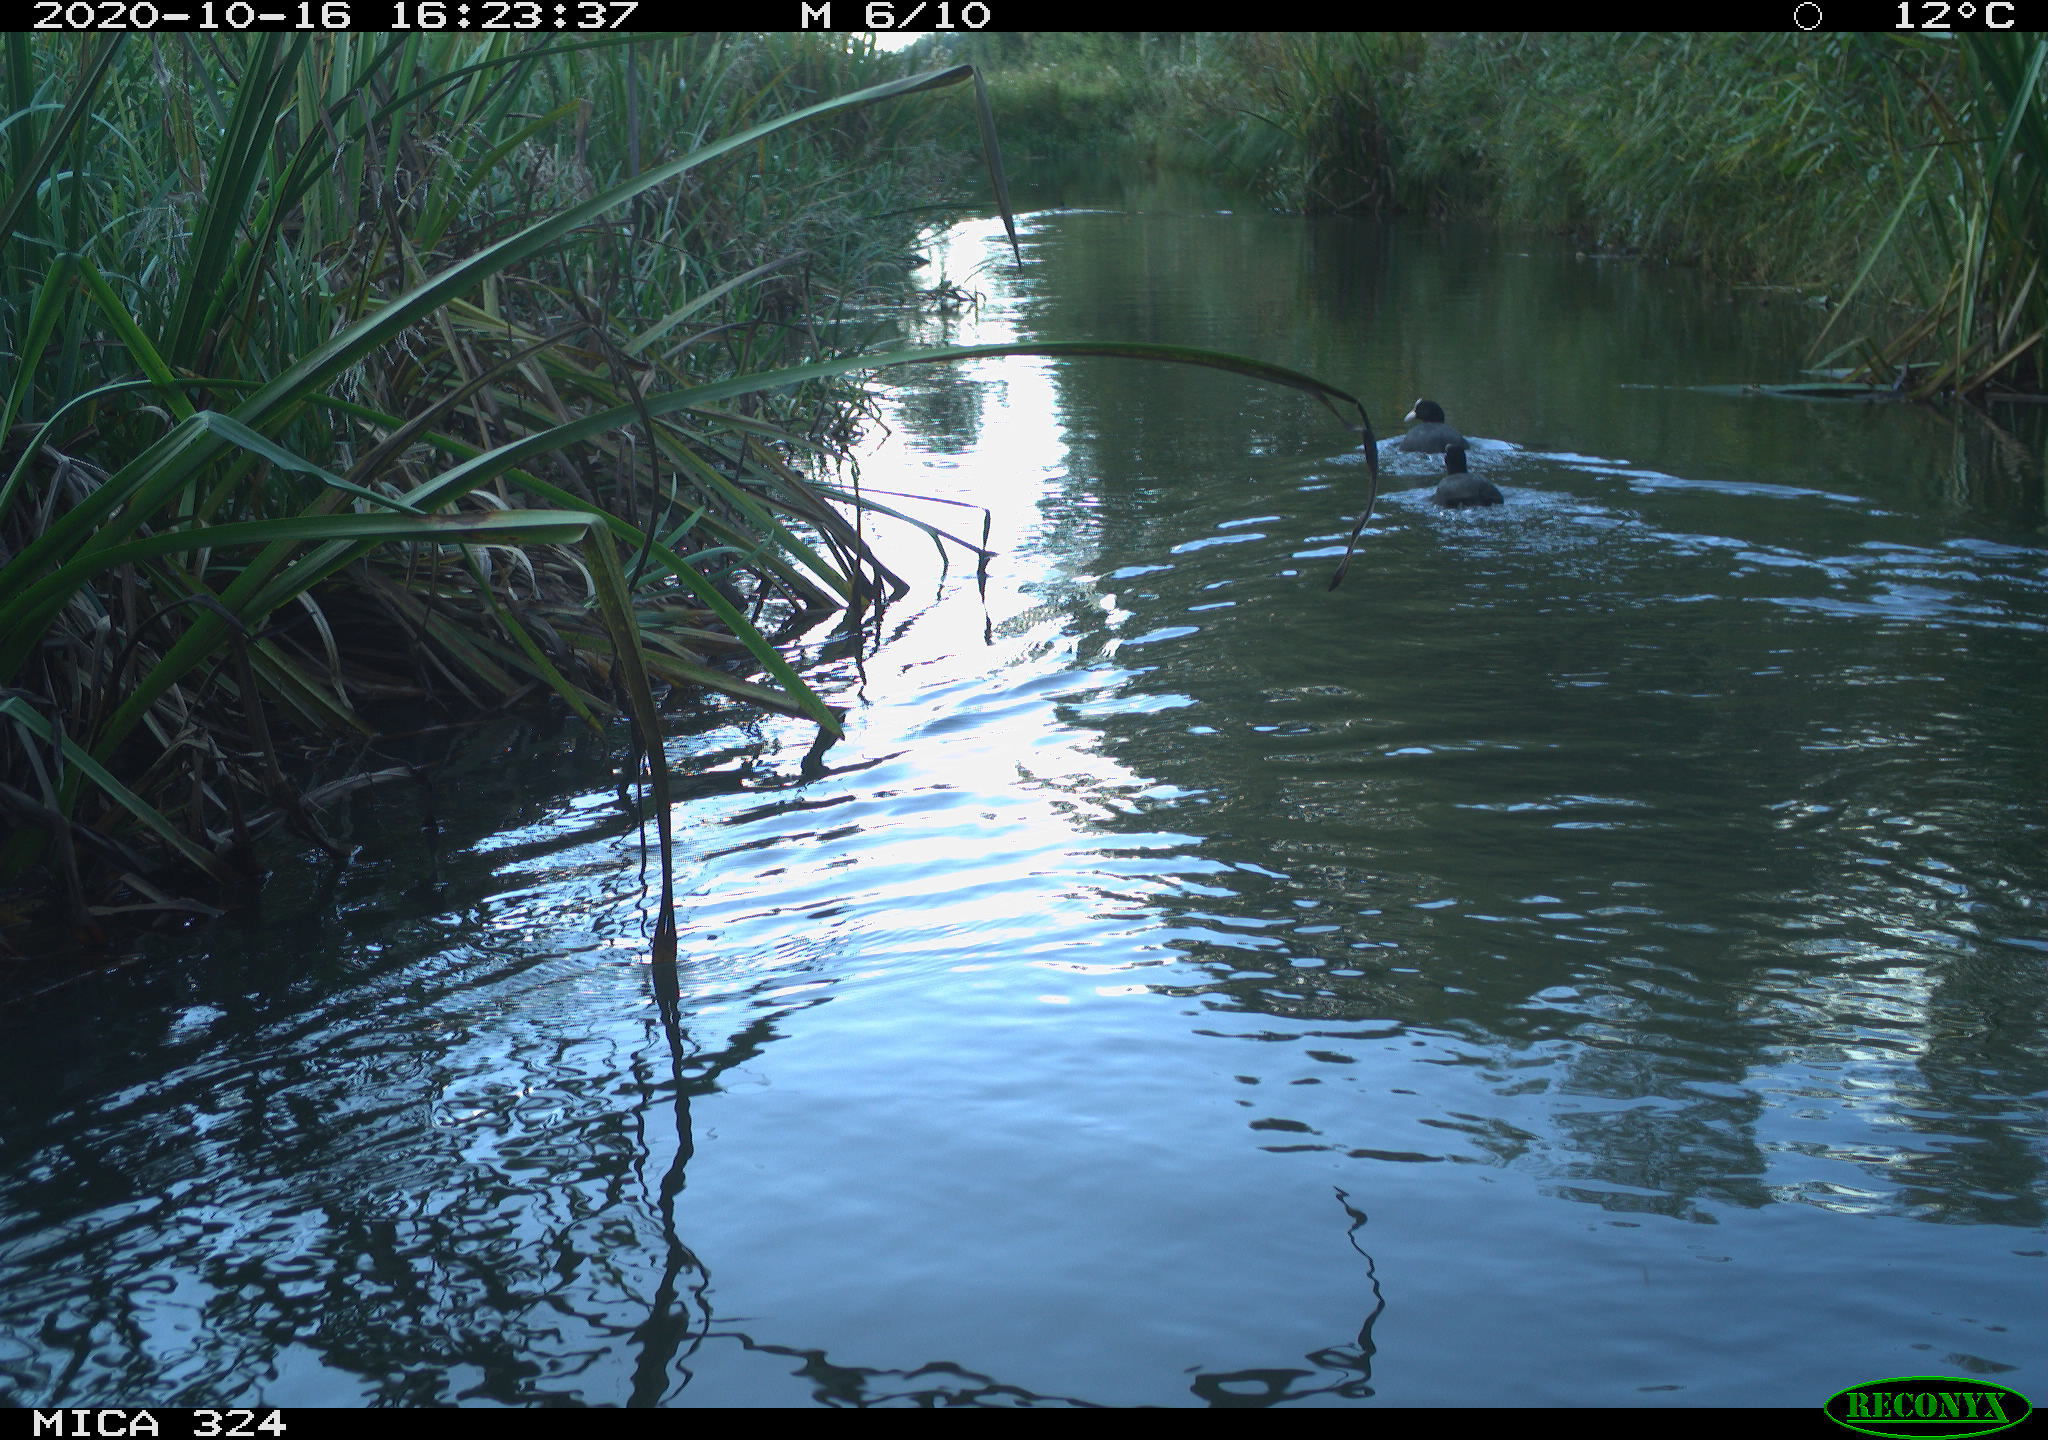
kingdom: Animalia
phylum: Chordata
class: Aves
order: Gruiformes
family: Rallidae
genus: Fulica
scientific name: Fulica atra
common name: Eurasian coot
